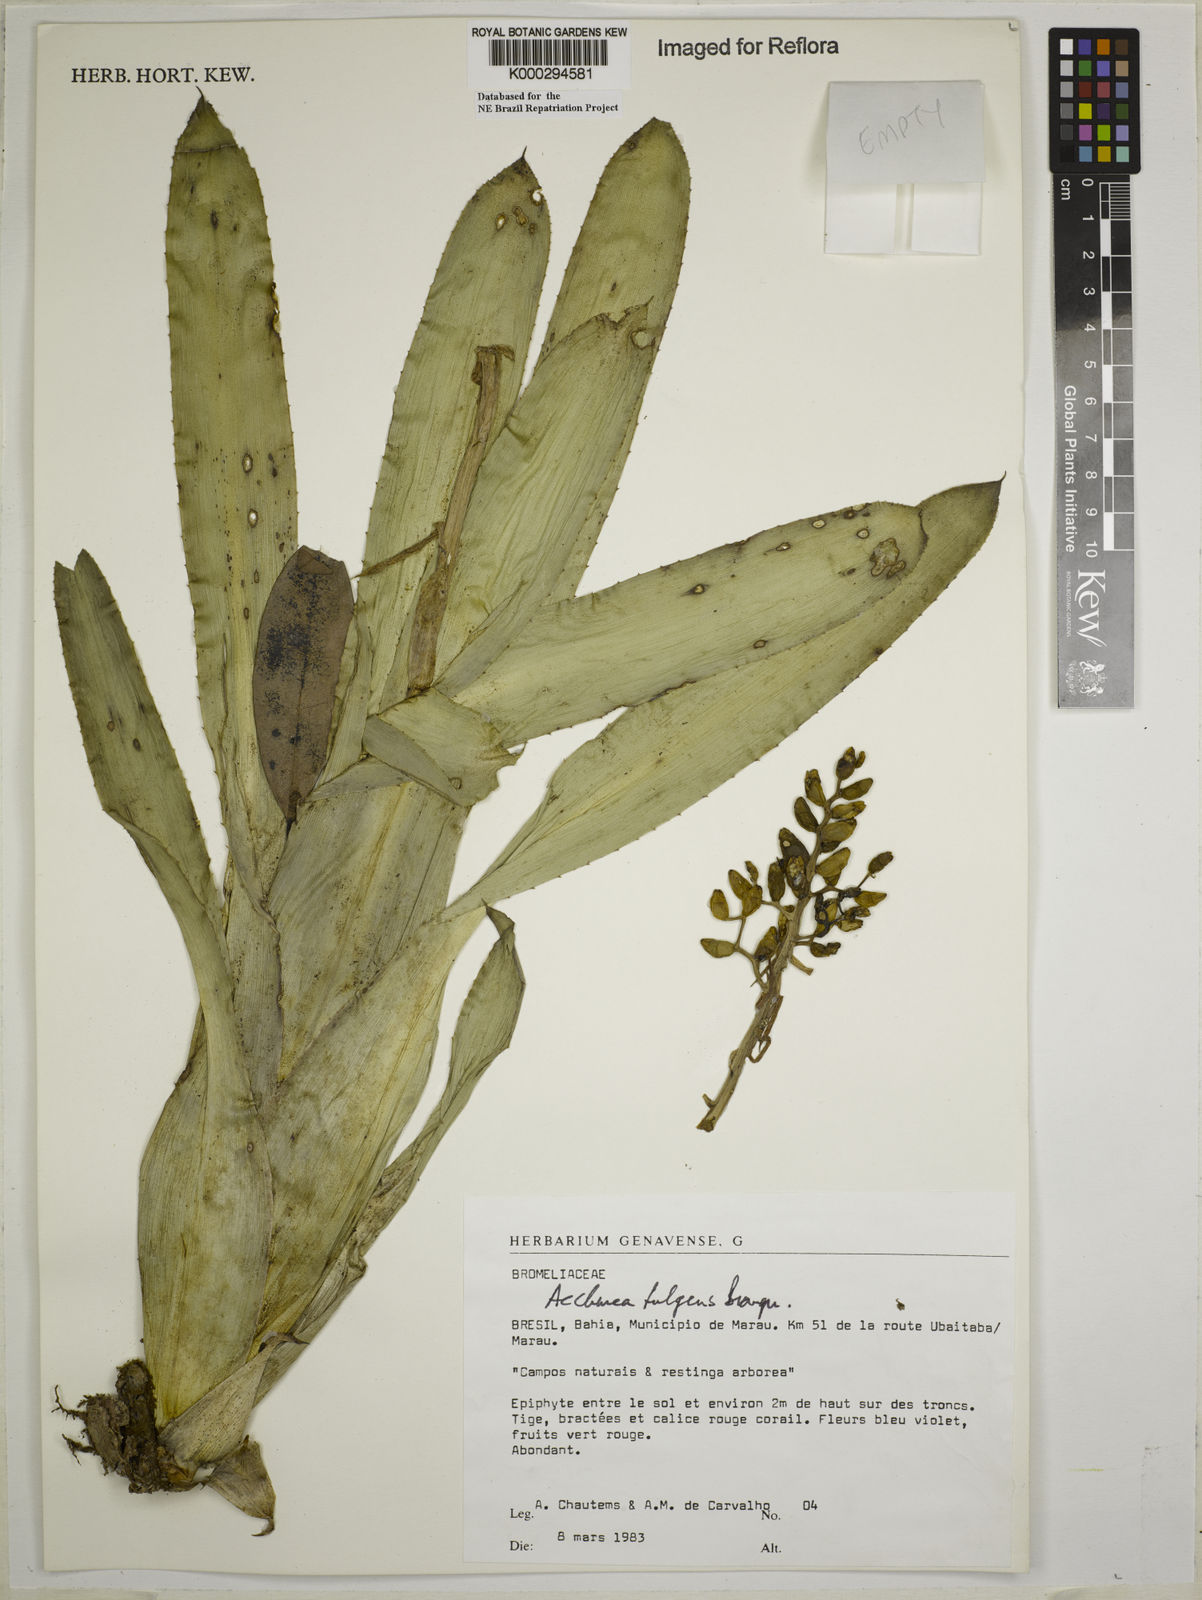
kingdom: Plantae
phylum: Tracheophyta
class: Liliopsida
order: Poales
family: Bromeliaceae
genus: Aechmea
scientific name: Aechmea fulgens
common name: Coralberry
